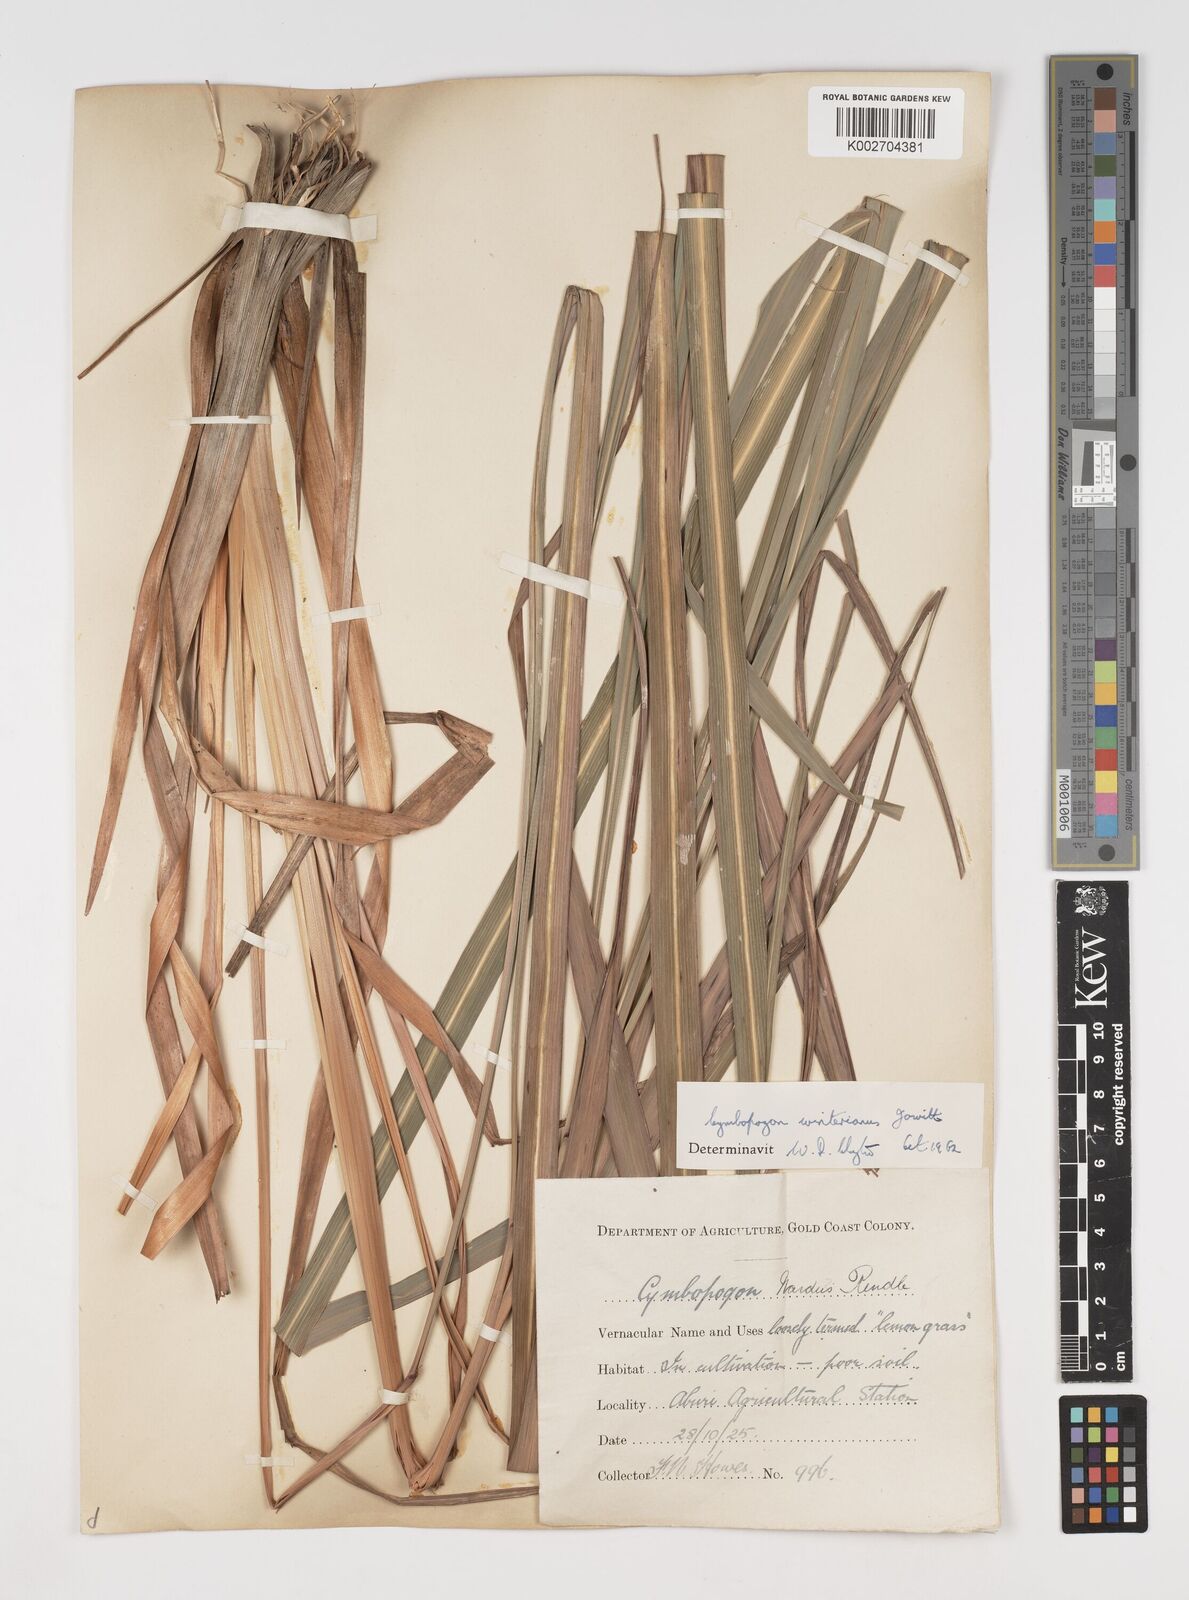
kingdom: Plantae
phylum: Tracheophyta
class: Liliopsida
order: Poales
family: Poaceae
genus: Cymbopogon
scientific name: Cymbopogon winterianus
